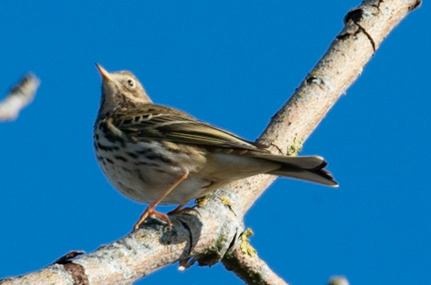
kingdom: Animalia
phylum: Chordata
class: Aves
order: Passeriformes
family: Motacillidae
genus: Anthus
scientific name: Anthus pratensis
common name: Engpiber
